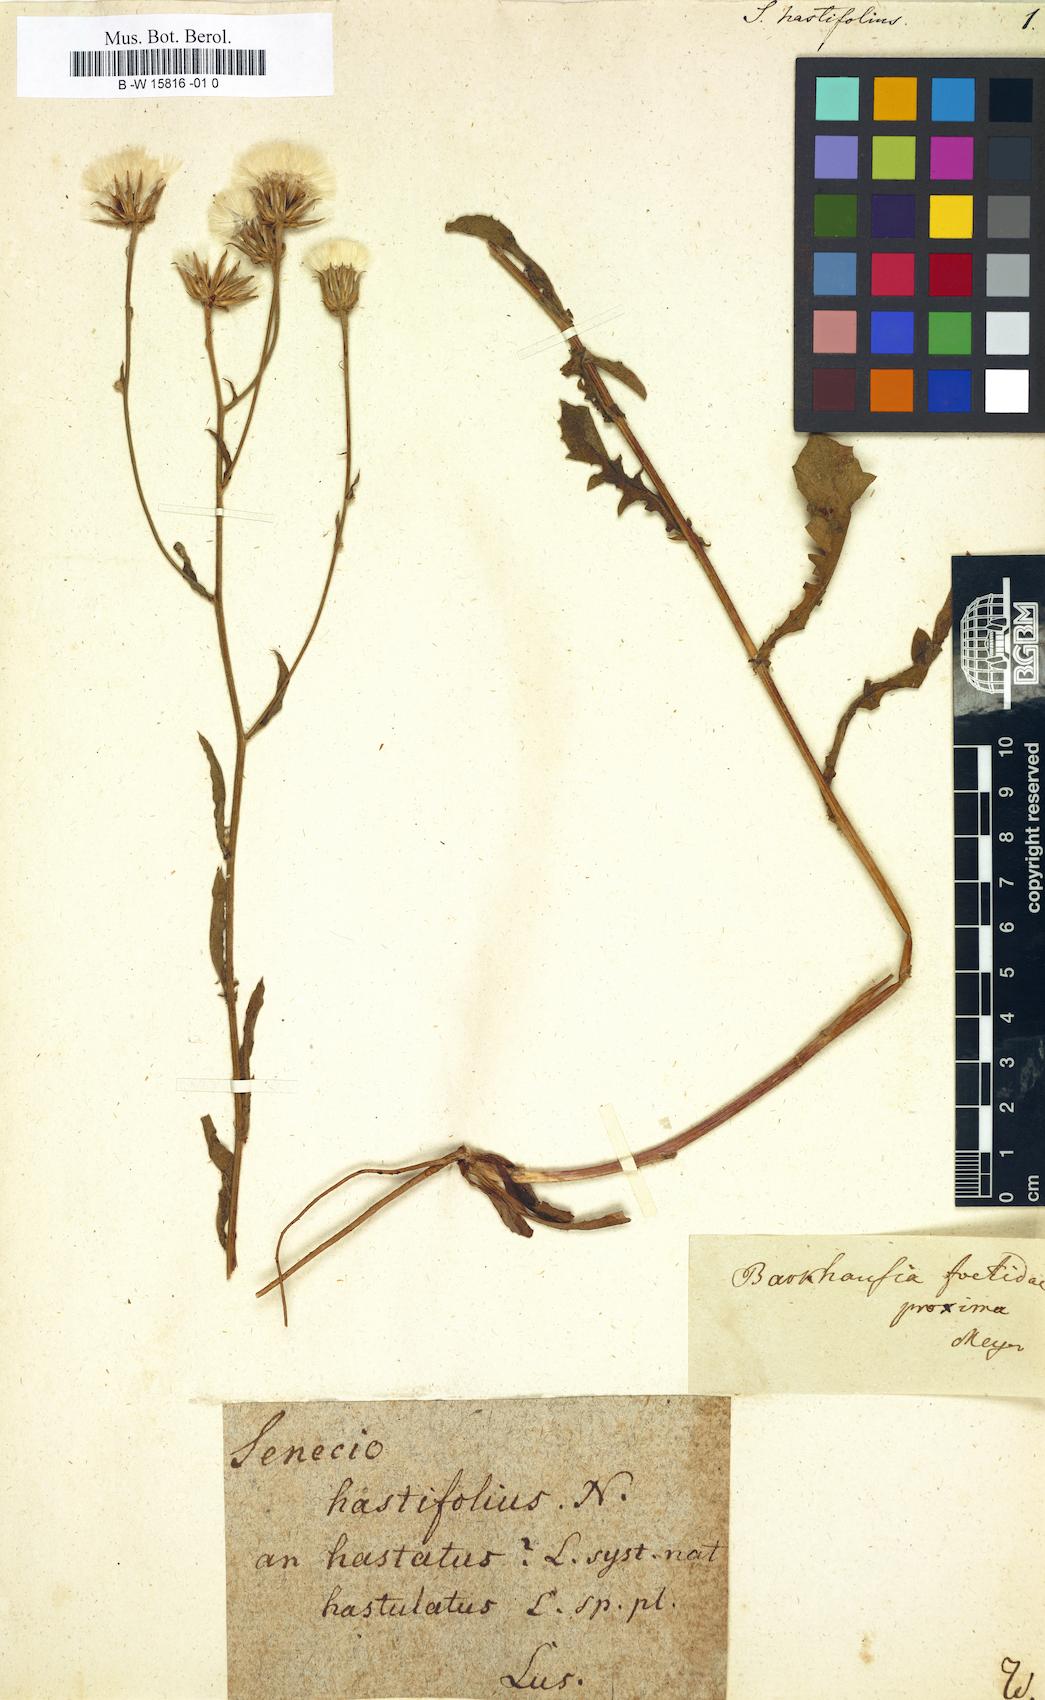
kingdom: Plantae
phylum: Tracheophyta
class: Magnoliopsida
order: Asterales
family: Asteraceae
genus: Senecio
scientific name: Senecio hastifolius
